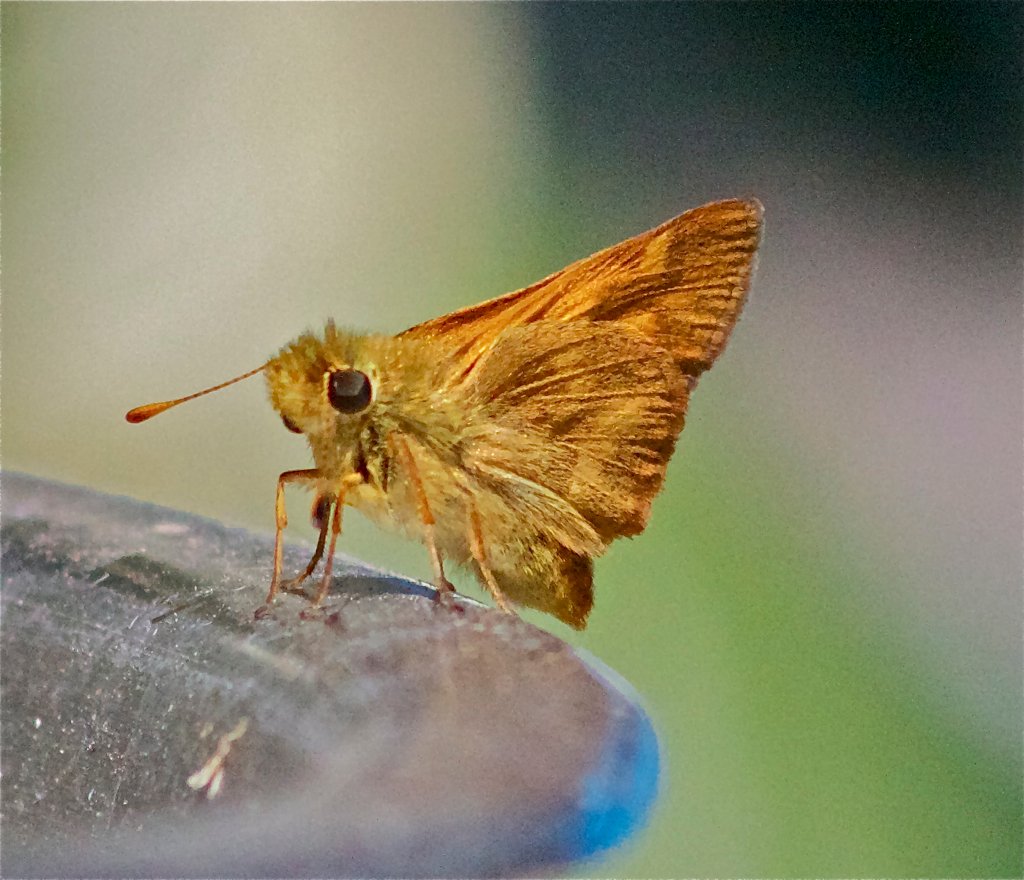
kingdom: Animalia
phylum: Arthropoda
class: Insecta
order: Lepidoptera
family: Hesperiidae
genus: Ochlodes
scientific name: Ochlodes sylvanoides
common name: Woodland Skipper
